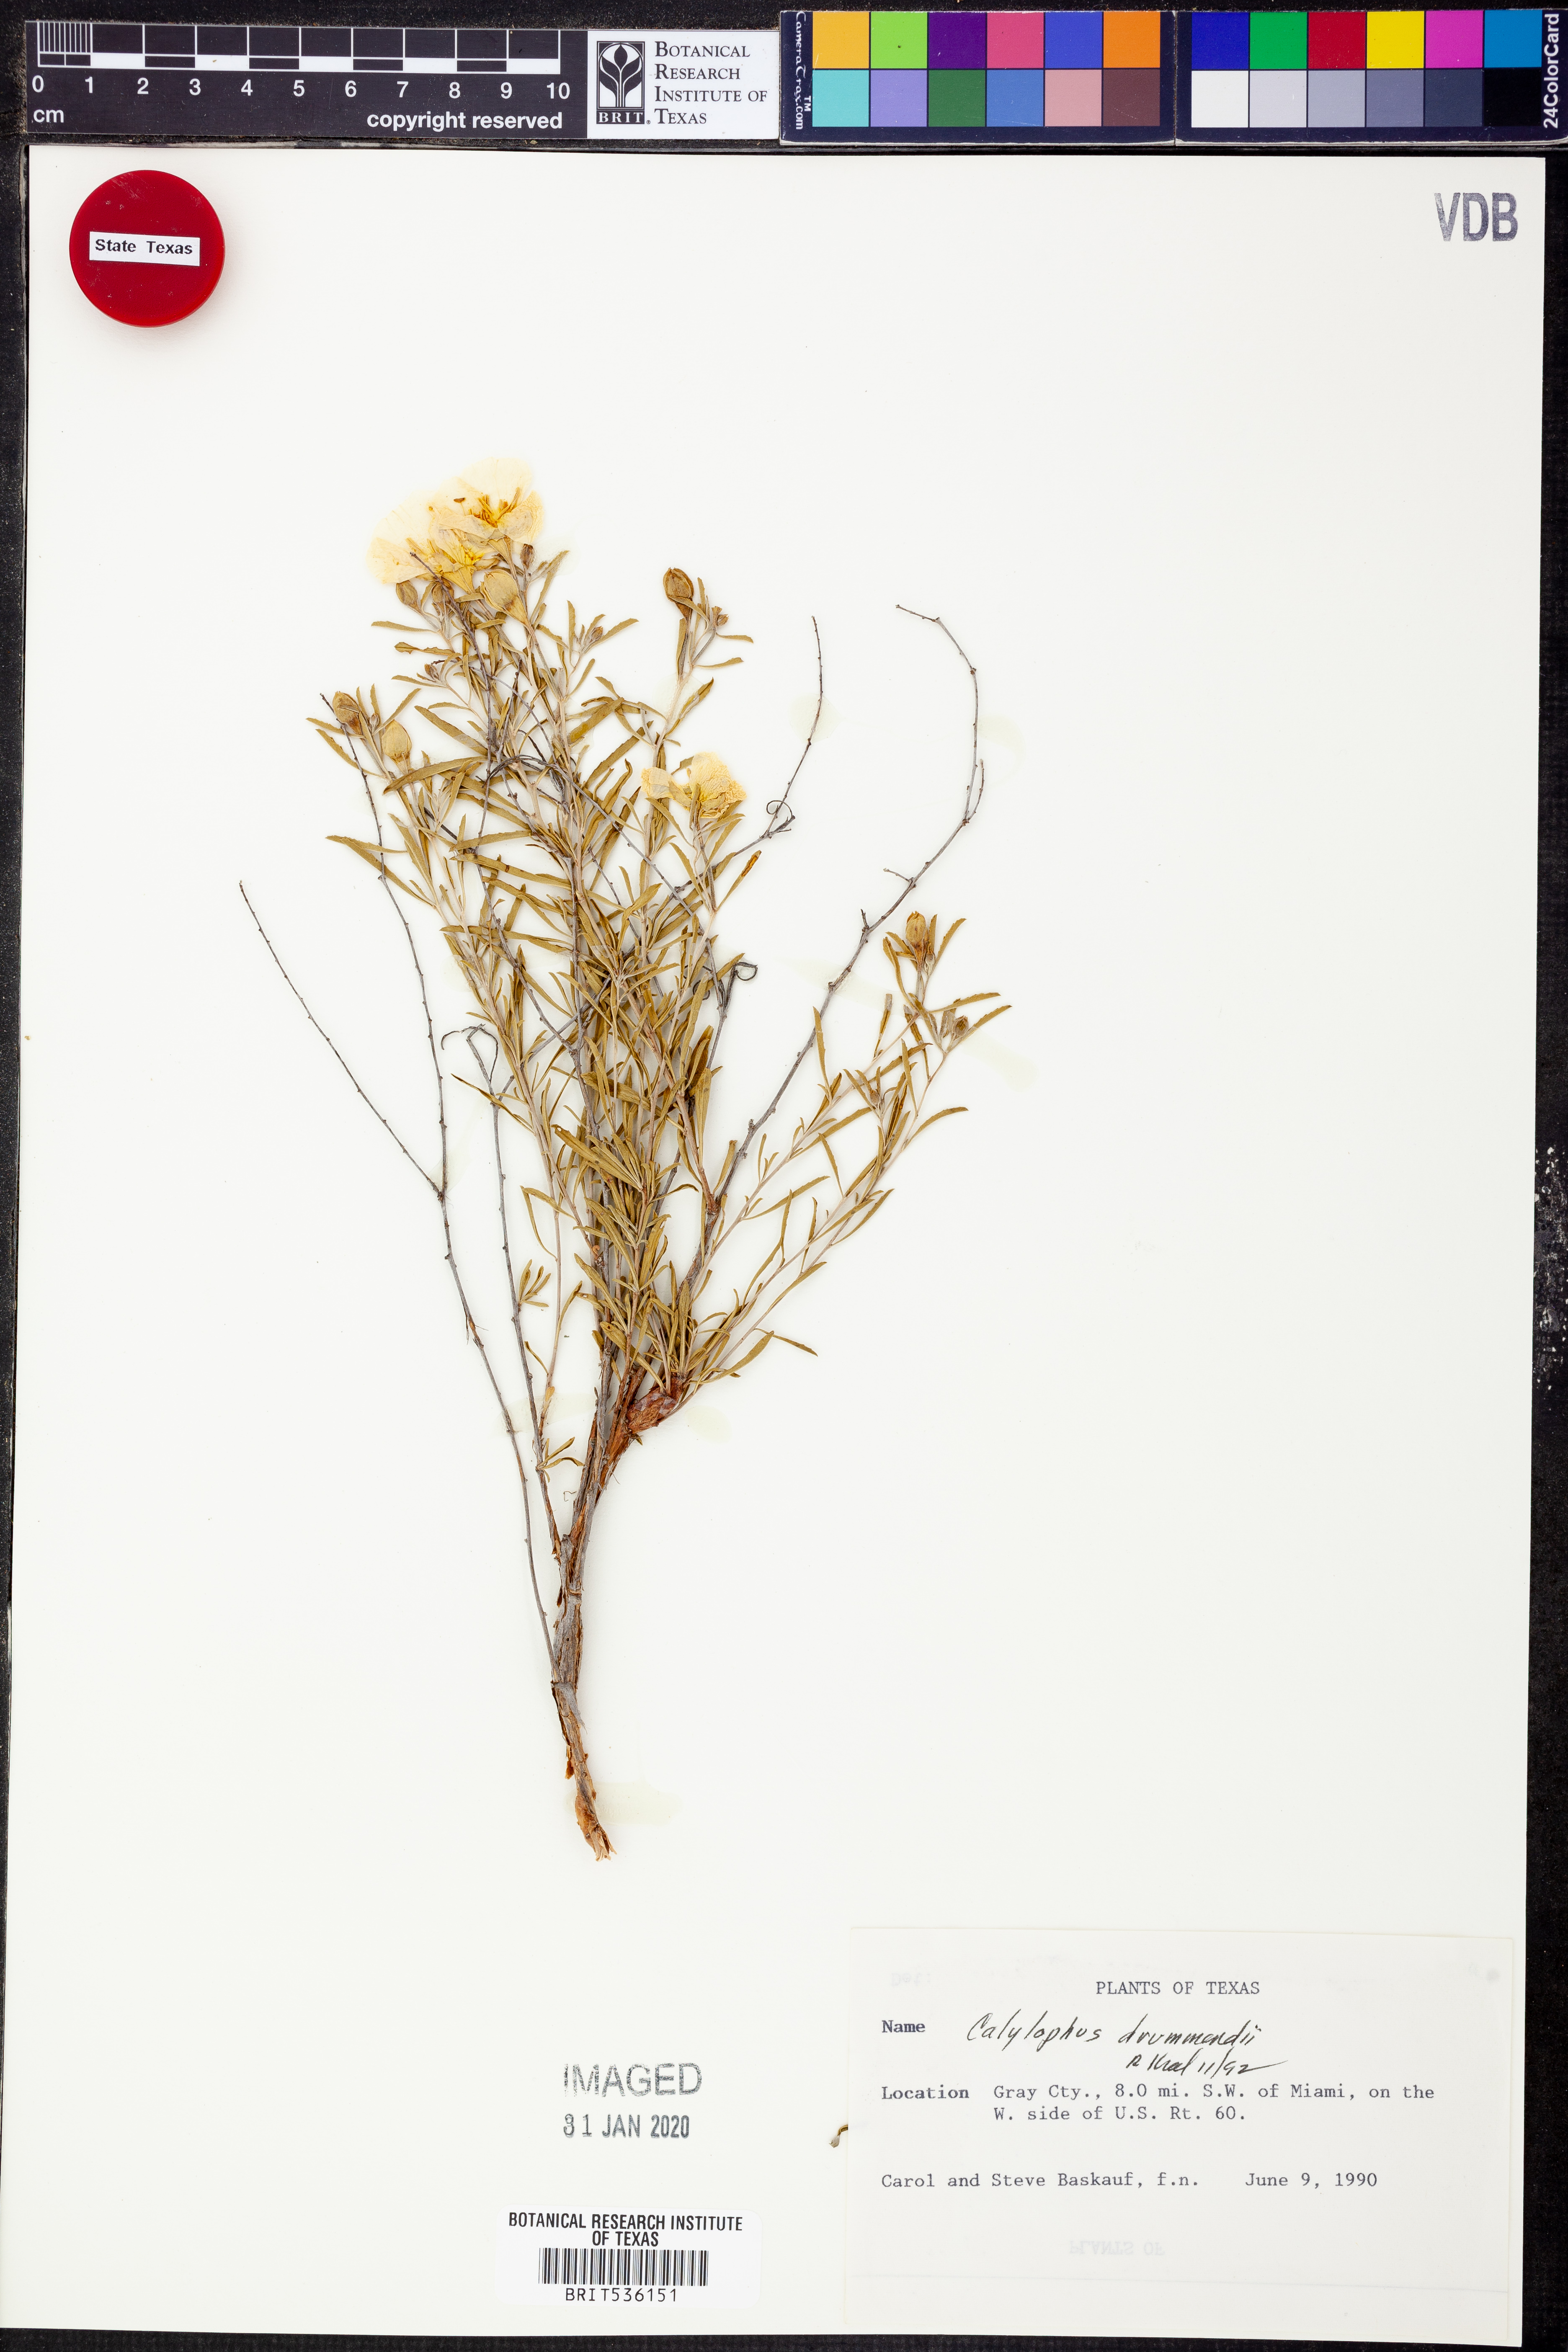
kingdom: Plantae
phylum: Tracheophyta
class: Magnoliopsida
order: Myrtales
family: Onagraceae
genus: Oenothera
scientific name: Oenothera serrulata
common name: Half-shrub calylophus
